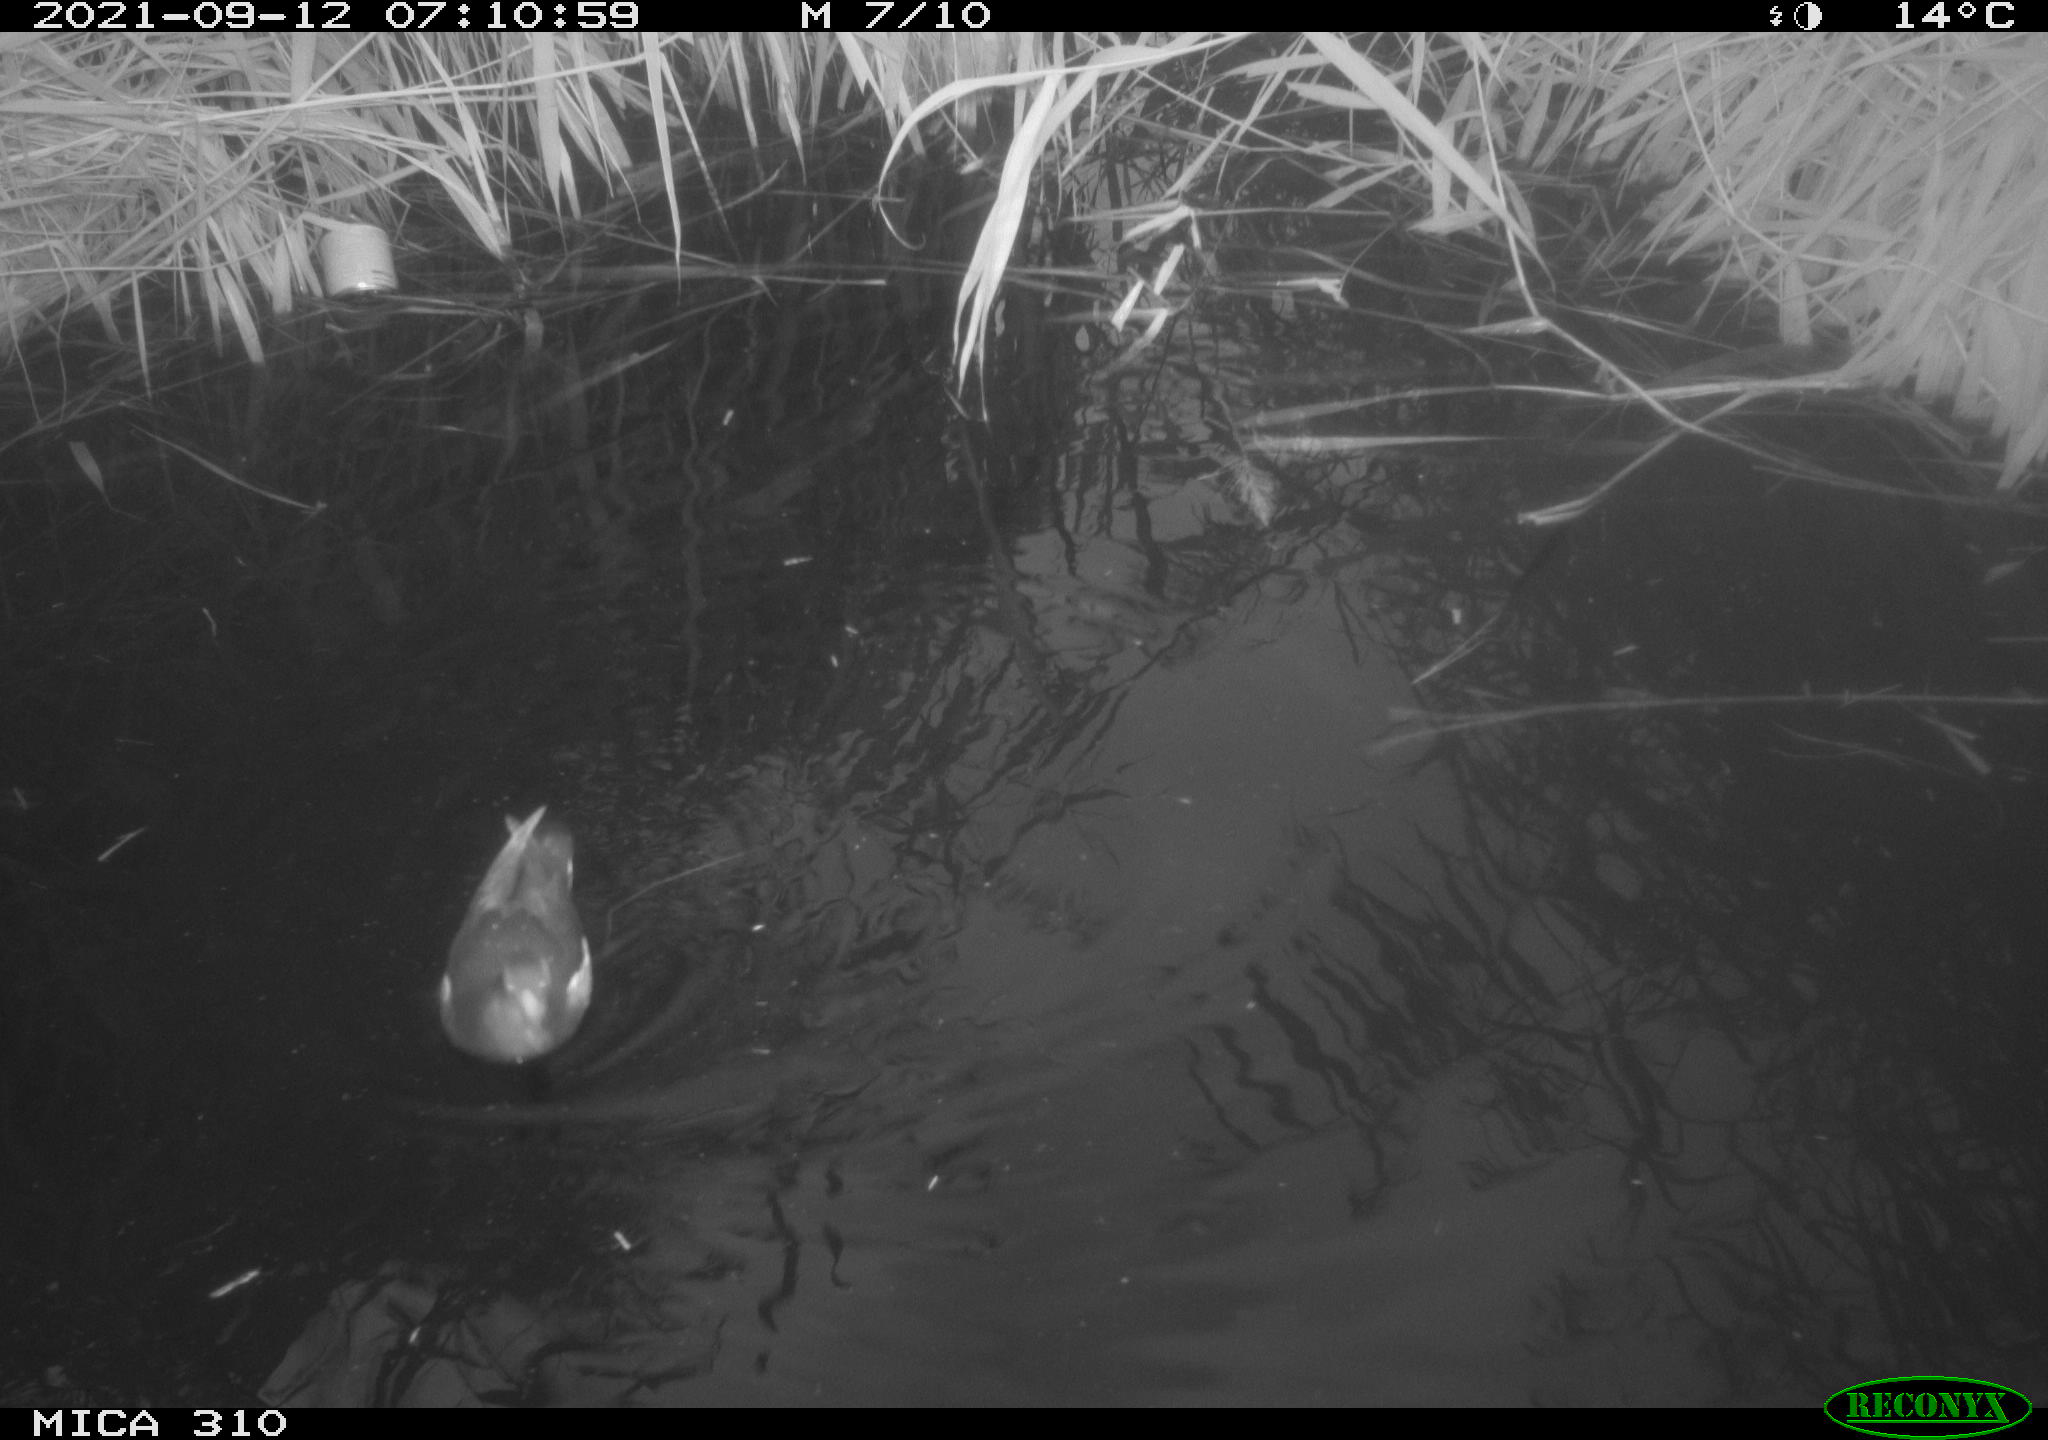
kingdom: Animalia
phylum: Chordata
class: Aves
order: Gruiformes
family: Rallidae
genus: Gallinula
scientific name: Gallinula chloropus
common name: Common moorhen
